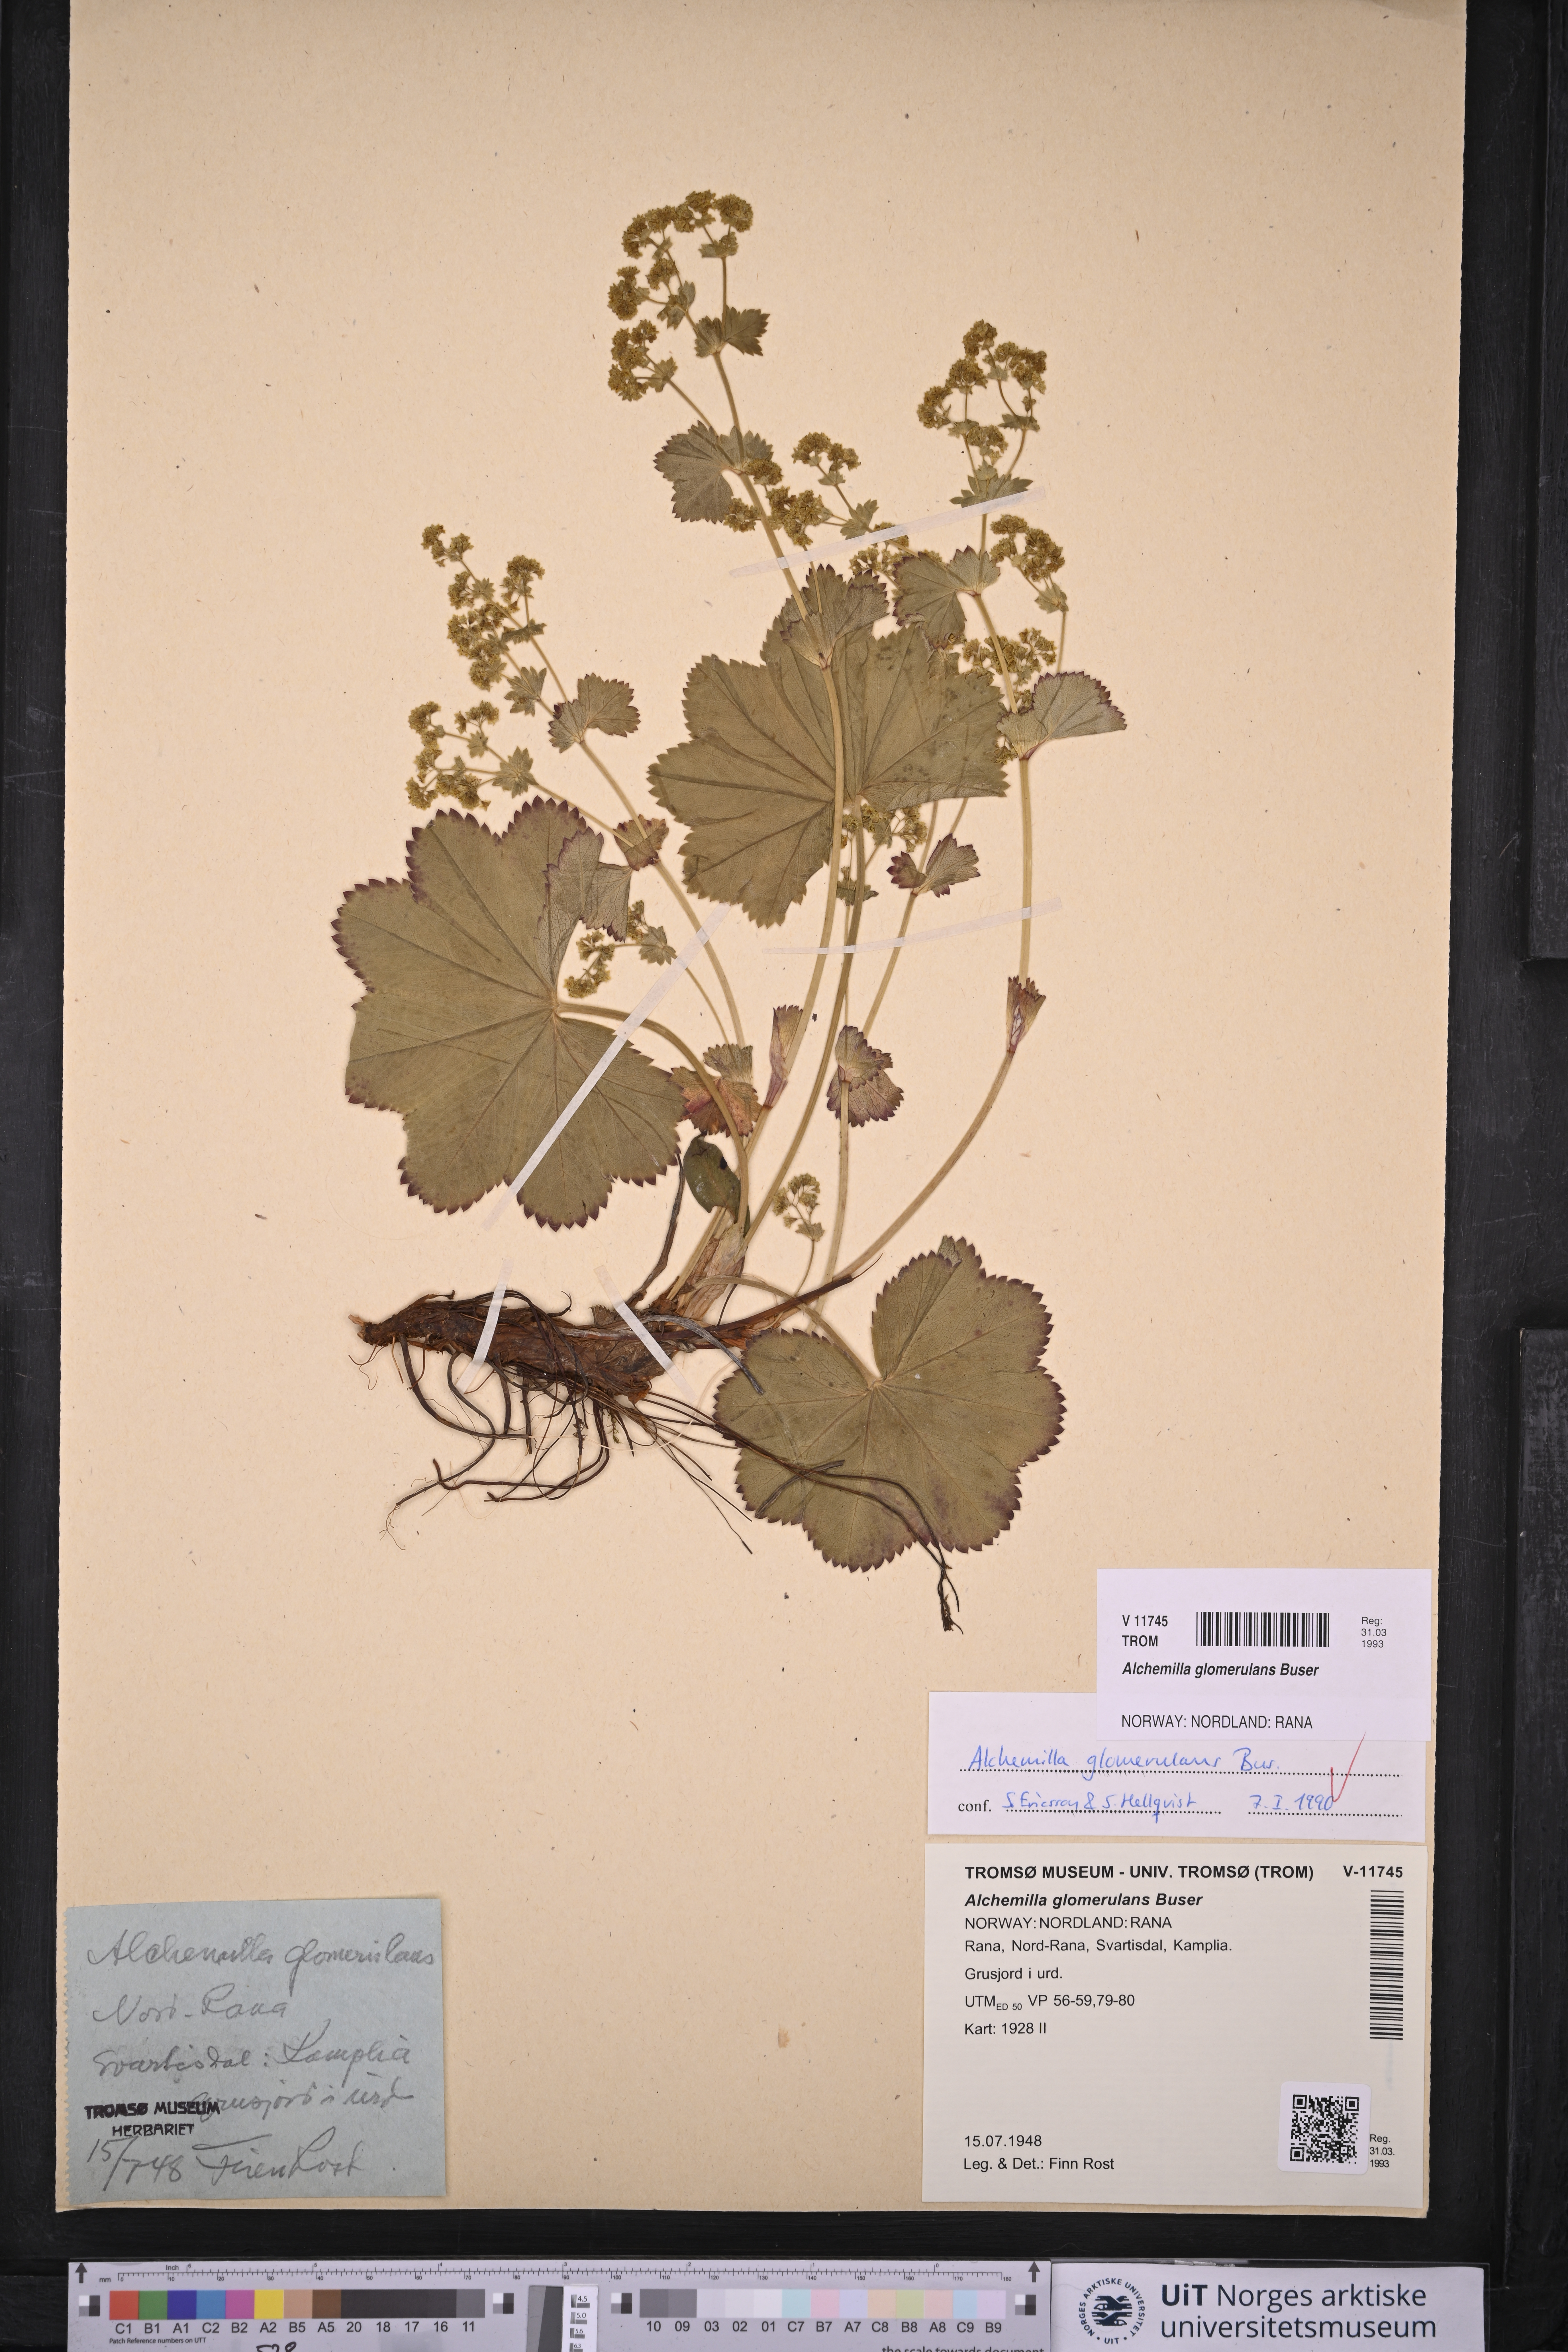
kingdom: Plantae
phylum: Tracheophyta
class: Magnoliopsida
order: Rosales
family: Rosaceae
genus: Alchemilla
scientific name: Alchemilla glomerulans
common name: Clustered lady's mantle
